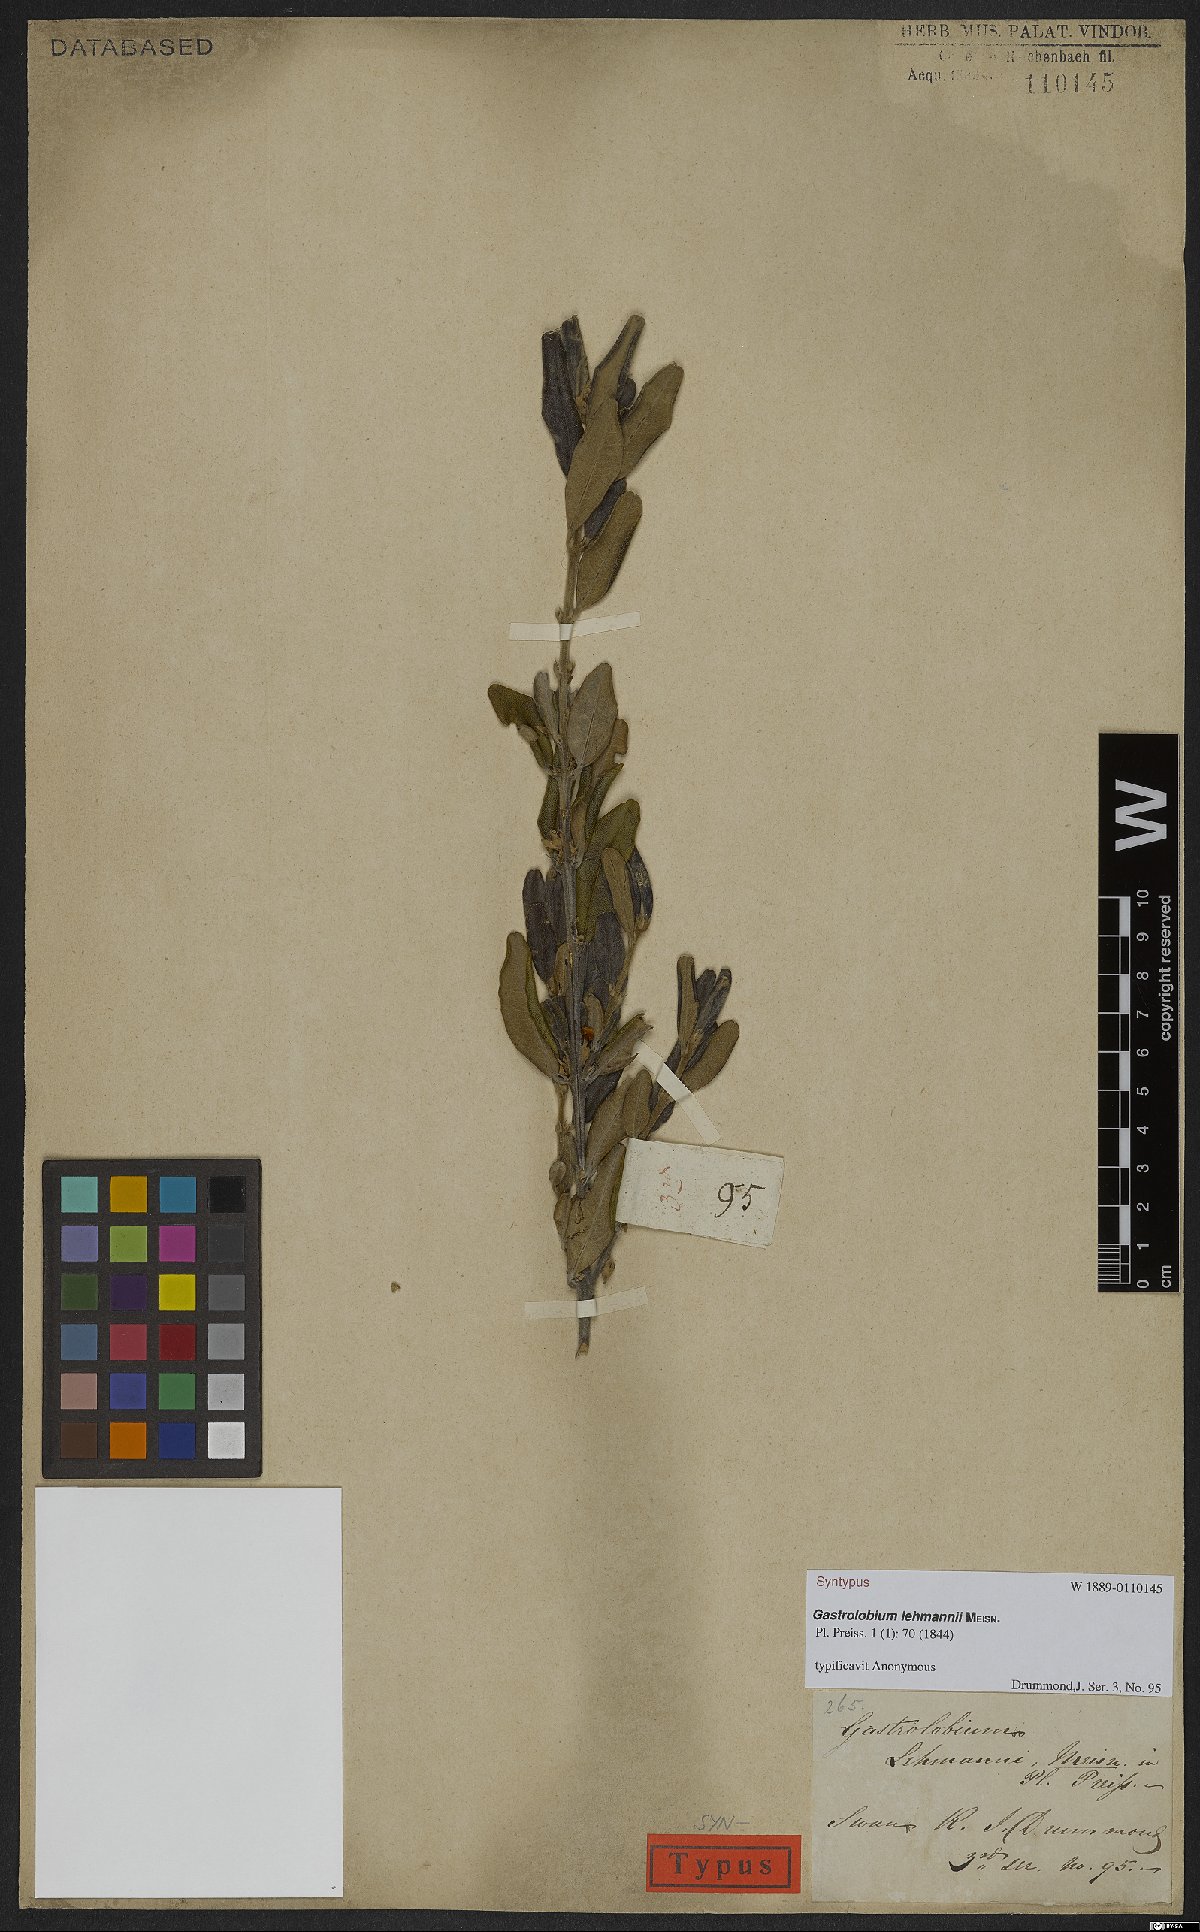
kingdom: Plantae
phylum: Tracheophyta
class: Magnoliopsida
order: Fabales
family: Fabaceae
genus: Gastrolobium
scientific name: Gastrolobium lehmannii
